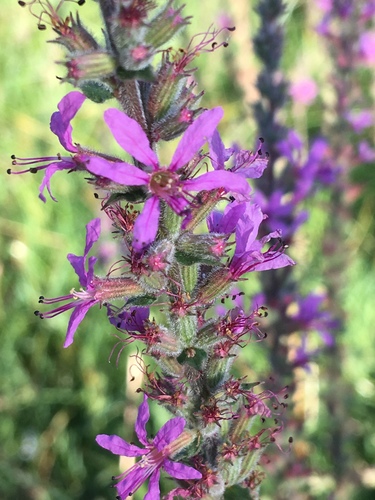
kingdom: Plantae
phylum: Tracheophyta
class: Magnoliopsida
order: Myrtales
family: Lythraceae
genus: Lythrum
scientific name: Lythrum salicaria
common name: Purple loosestrife
